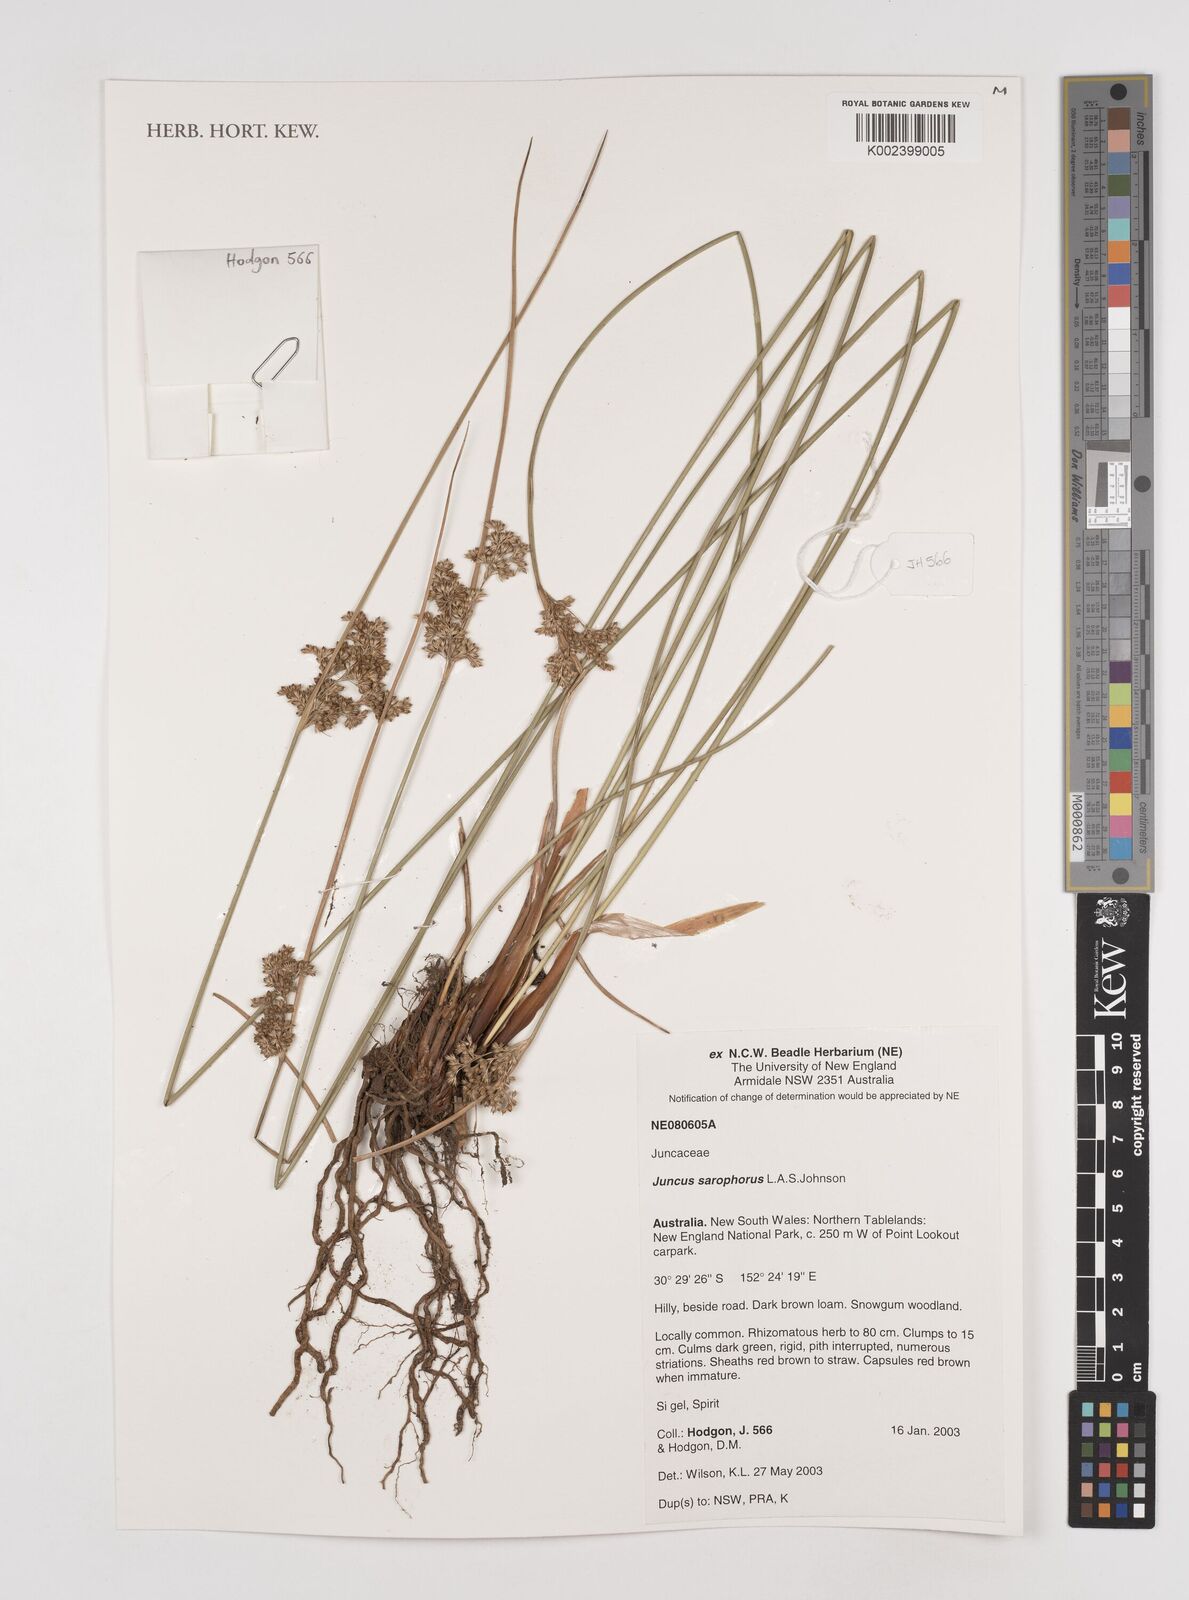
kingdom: Plantae
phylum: Tracheophyta
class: Liliopsida
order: Poales
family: Juncaceae
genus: Juncus
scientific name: Juncus sarophorus
